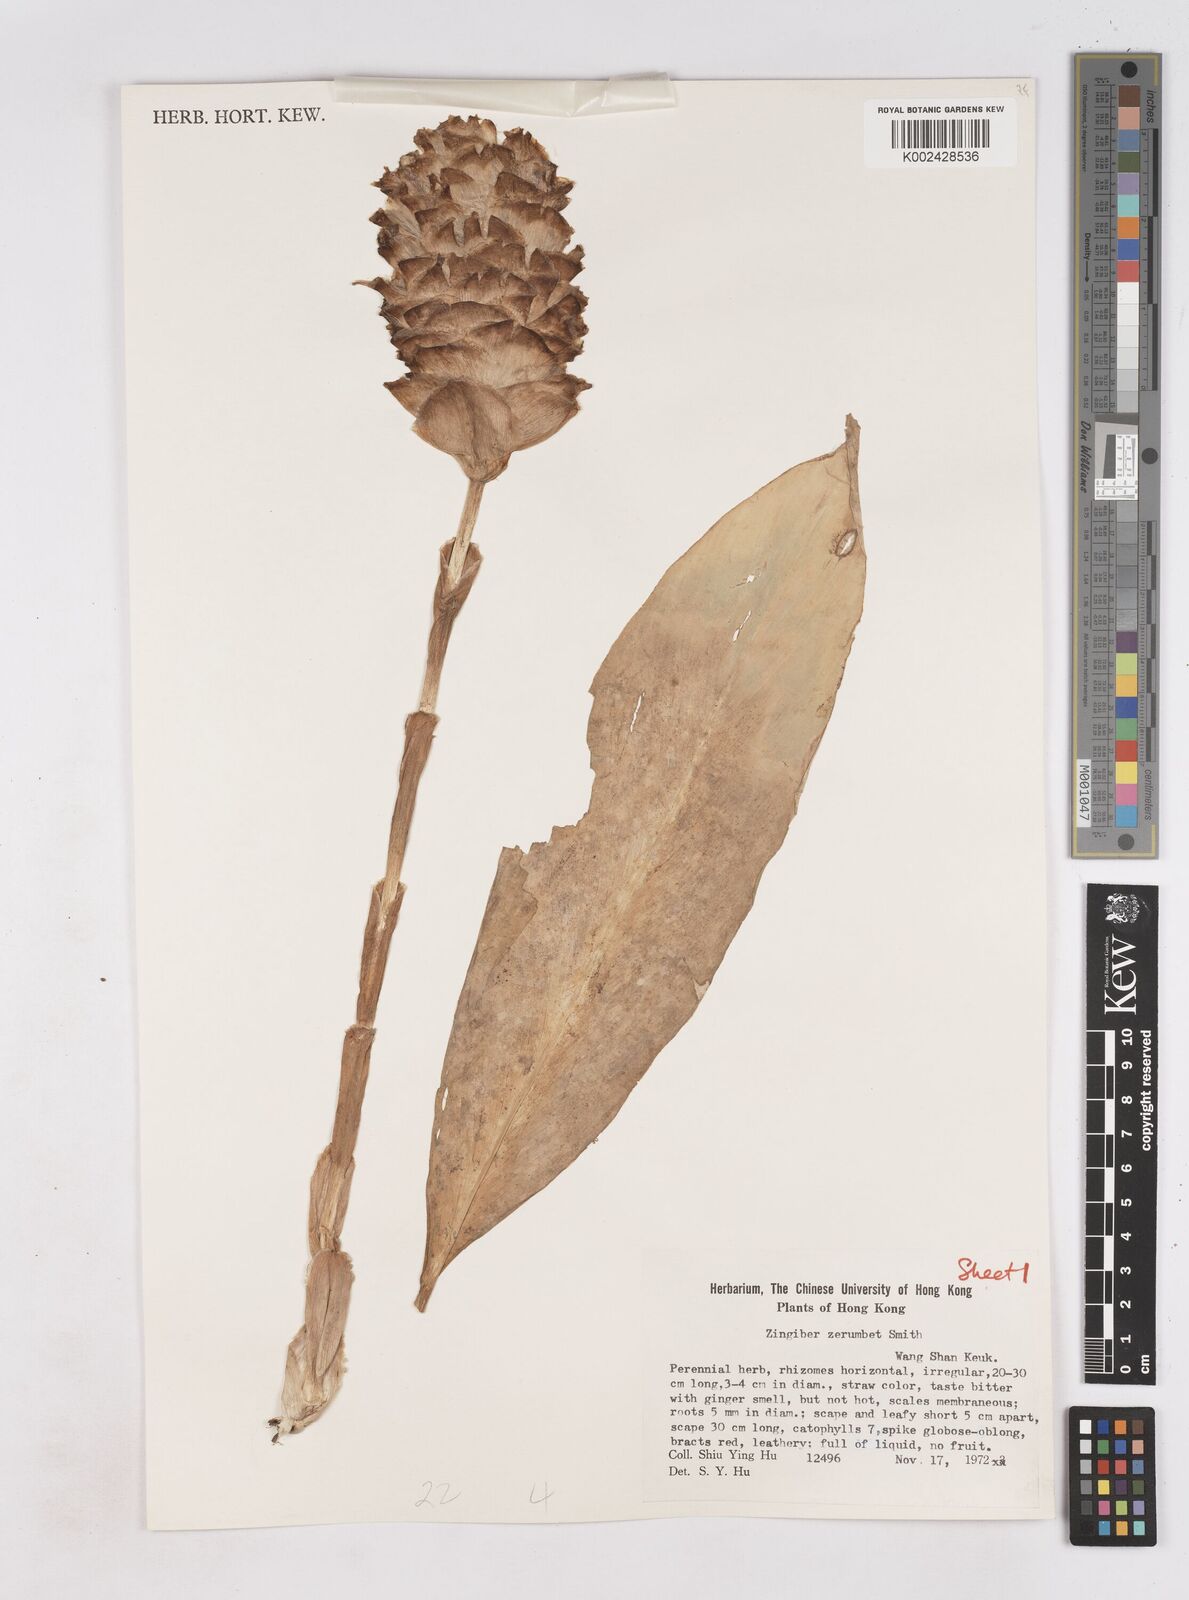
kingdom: Plantae
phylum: Tracheophyta
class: Liliopsida
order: Zingiberales
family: Zingiberaceae
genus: Zingiber
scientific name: Zingiber zerumbet
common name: Bitter ginger
